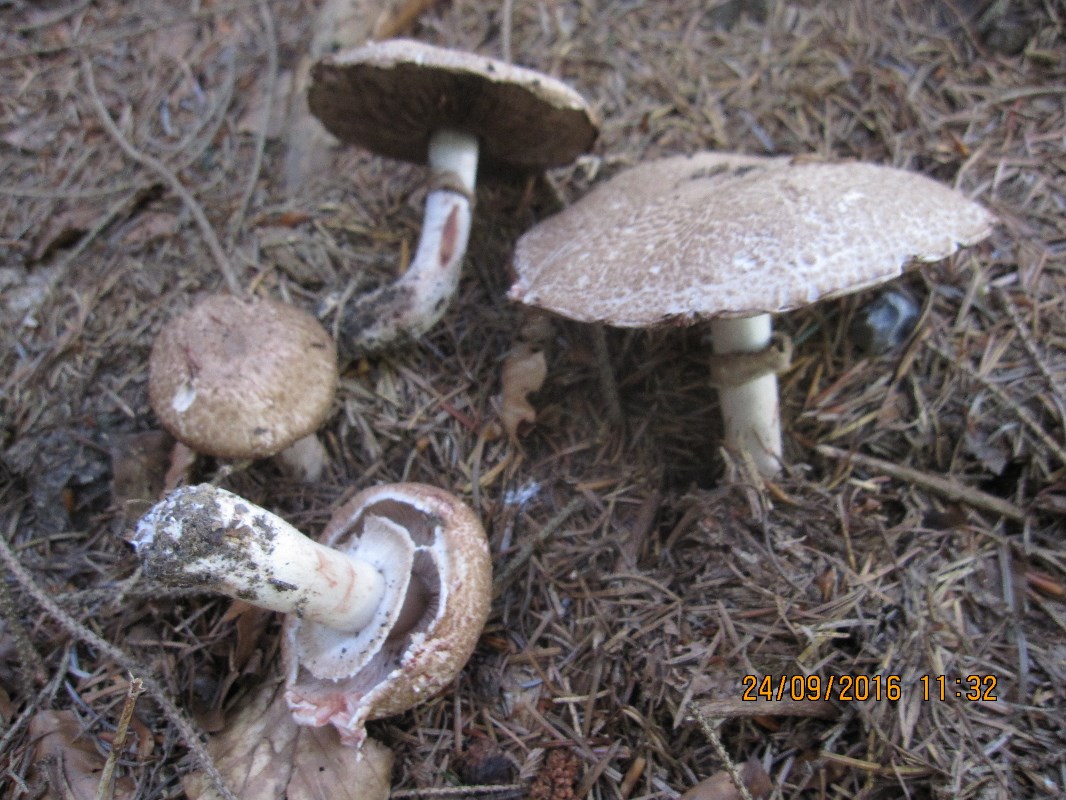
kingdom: Fungi
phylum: Basidiomycota
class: Agaricomycetes
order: Agaricales
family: Agaricaceae
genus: Agaricus
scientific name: Agaricus sylvaticus
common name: lille blod-champignon
